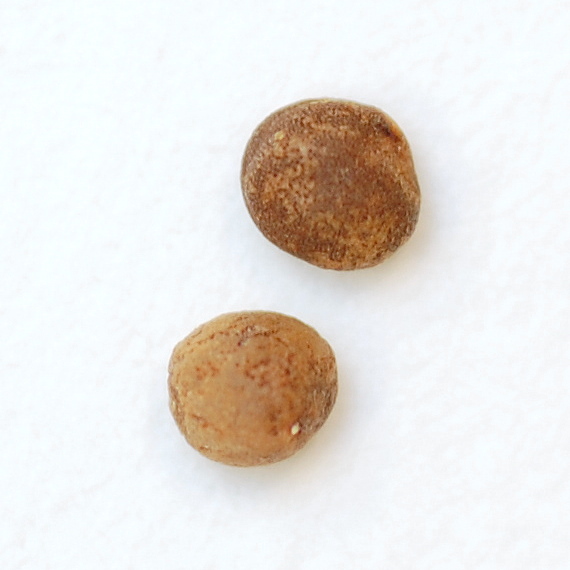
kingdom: Plantae
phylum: Tracheophyta
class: Magnoliopsida
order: Brassicales
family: Brassicaceae
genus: Sinapis
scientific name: Sinapis alba
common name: White mustard
